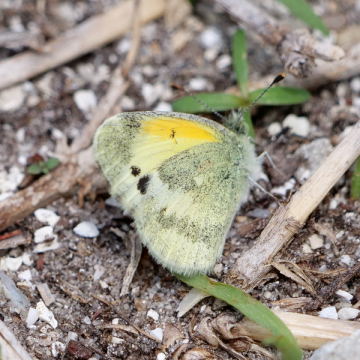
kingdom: Animalia
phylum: Arthropoda
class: Insecta
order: Lepidoptera
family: Pieridae
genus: Nathalis
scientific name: Nathalis iole
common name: Dainty Sulphur
